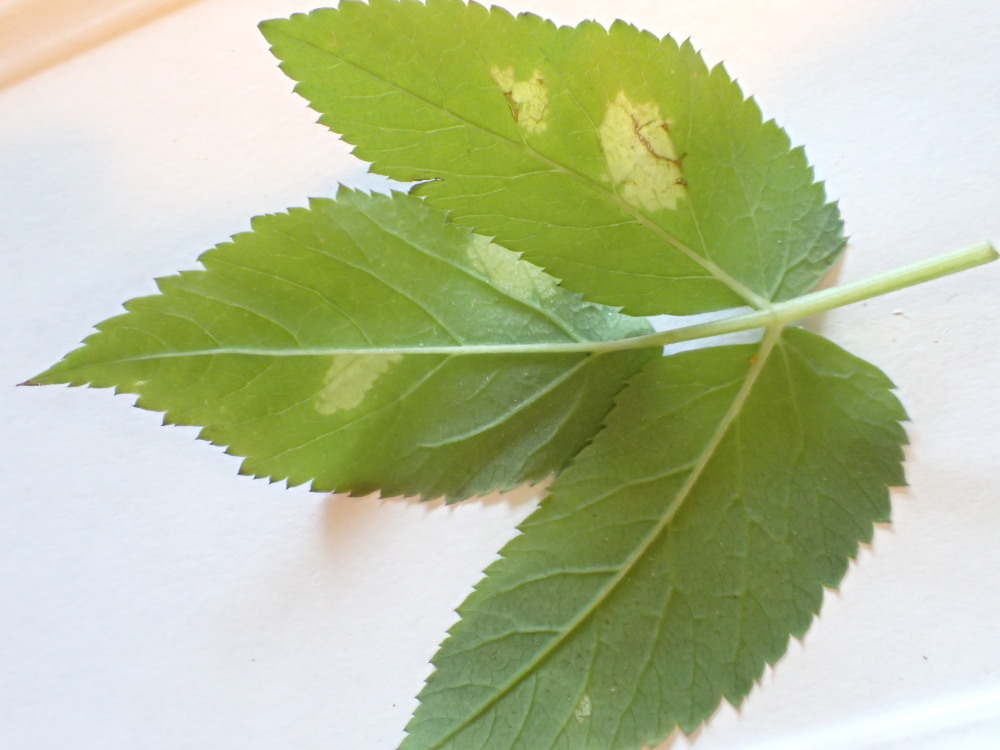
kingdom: Chromista
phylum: Oomycota
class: Peronosporea
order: Peronosporales
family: Peronosporaceae
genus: Peronospora
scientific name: Peronospora crustosa
